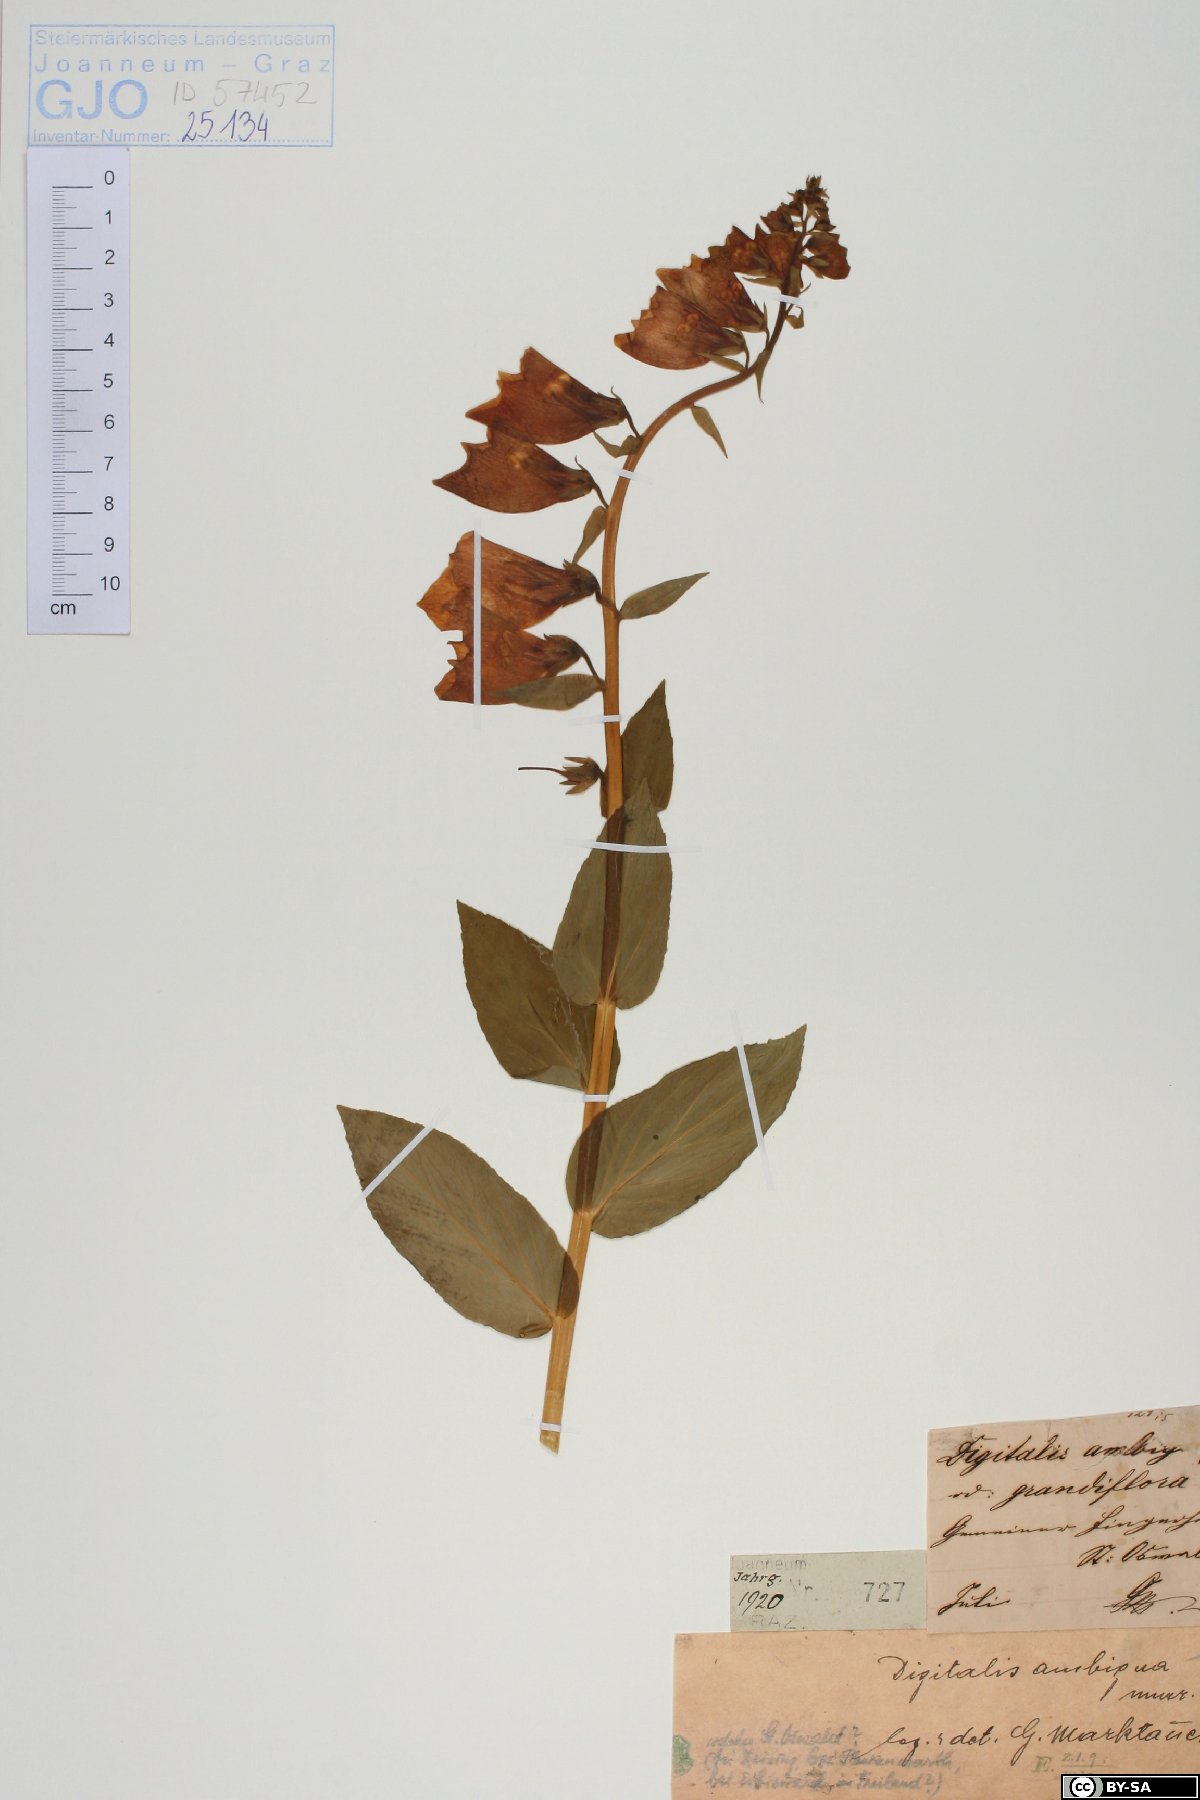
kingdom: Plantae
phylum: Tracheophyta
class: Magnoliopsida
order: Lamiales
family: Plantaginaceae
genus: Digitalis
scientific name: Digitalis grandiflora
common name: Yellow foxglove
